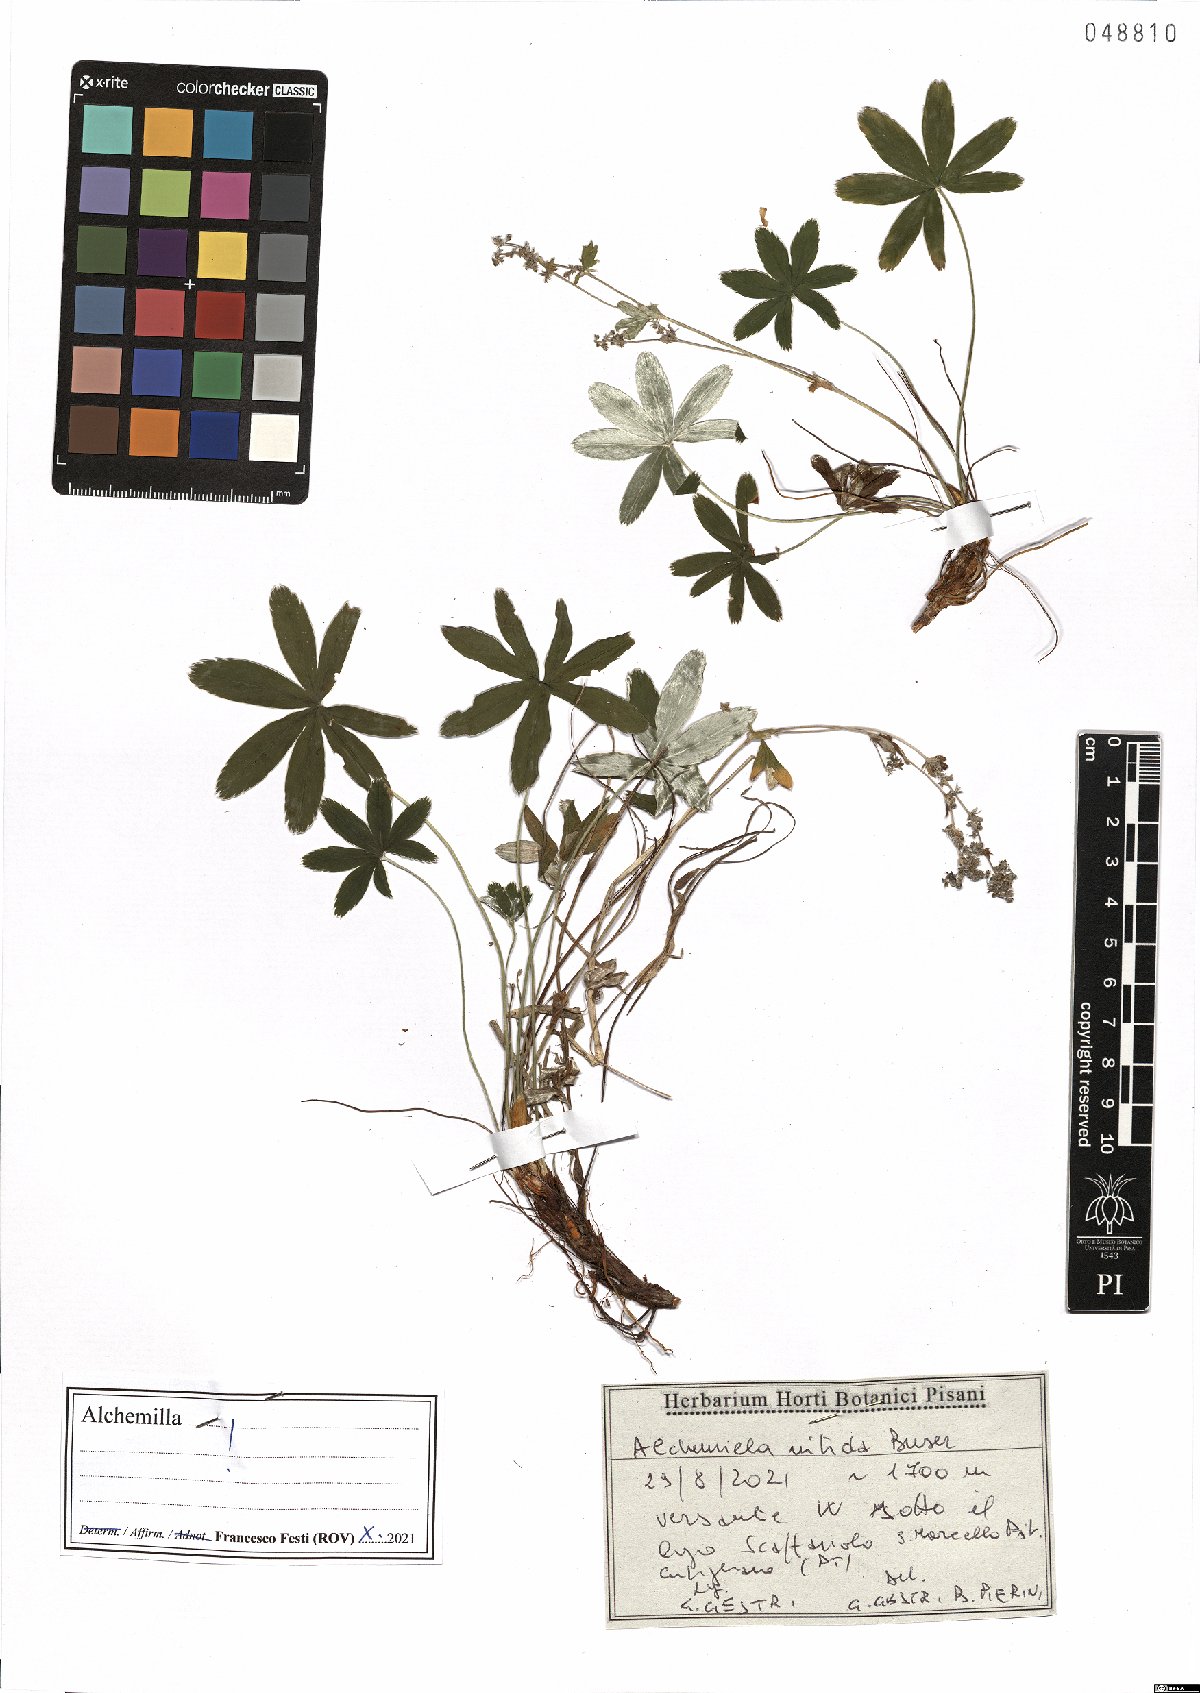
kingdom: Plantae
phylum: Tracheophyta
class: Magnoliopsida
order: Rosales
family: Rosaceae
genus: Alchemilla
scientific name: Alchemilla nitida
